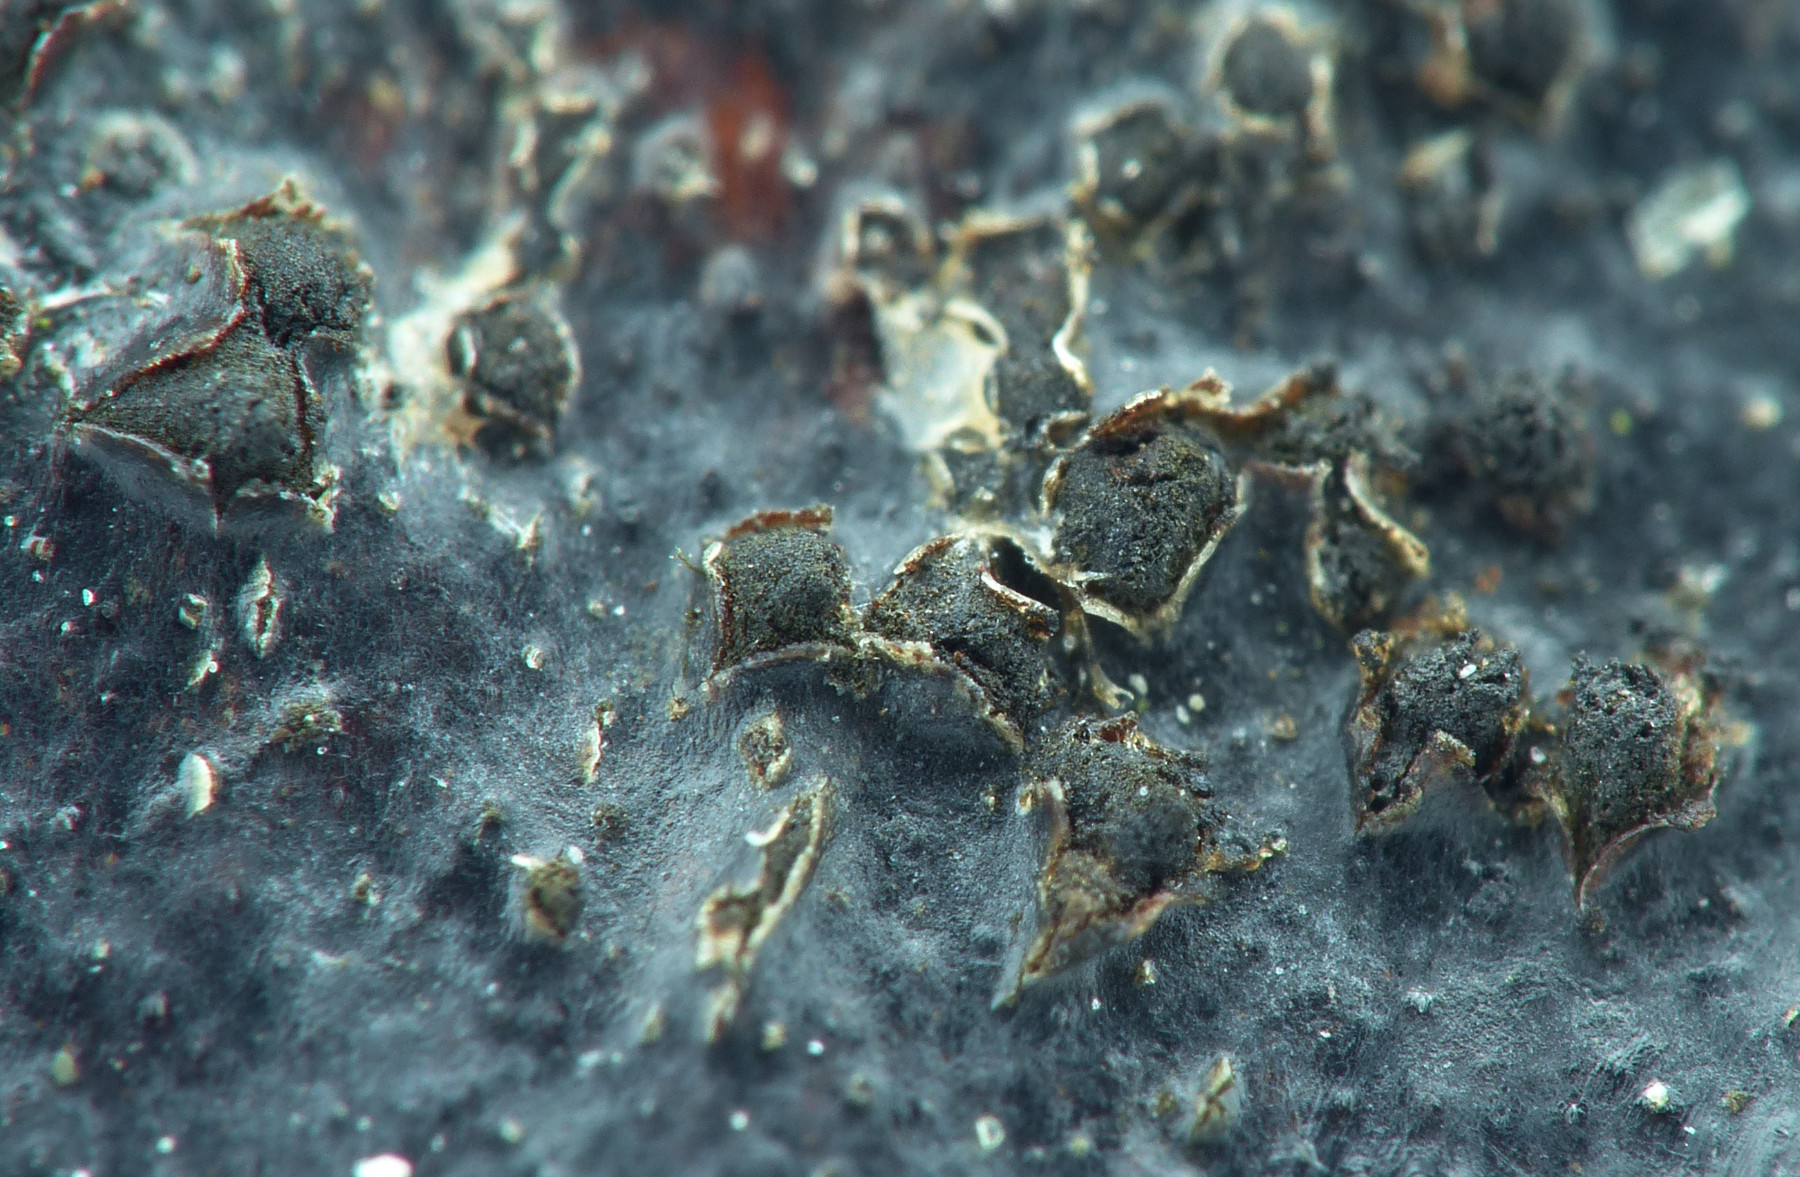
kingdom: Fungi
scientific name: Fungi
